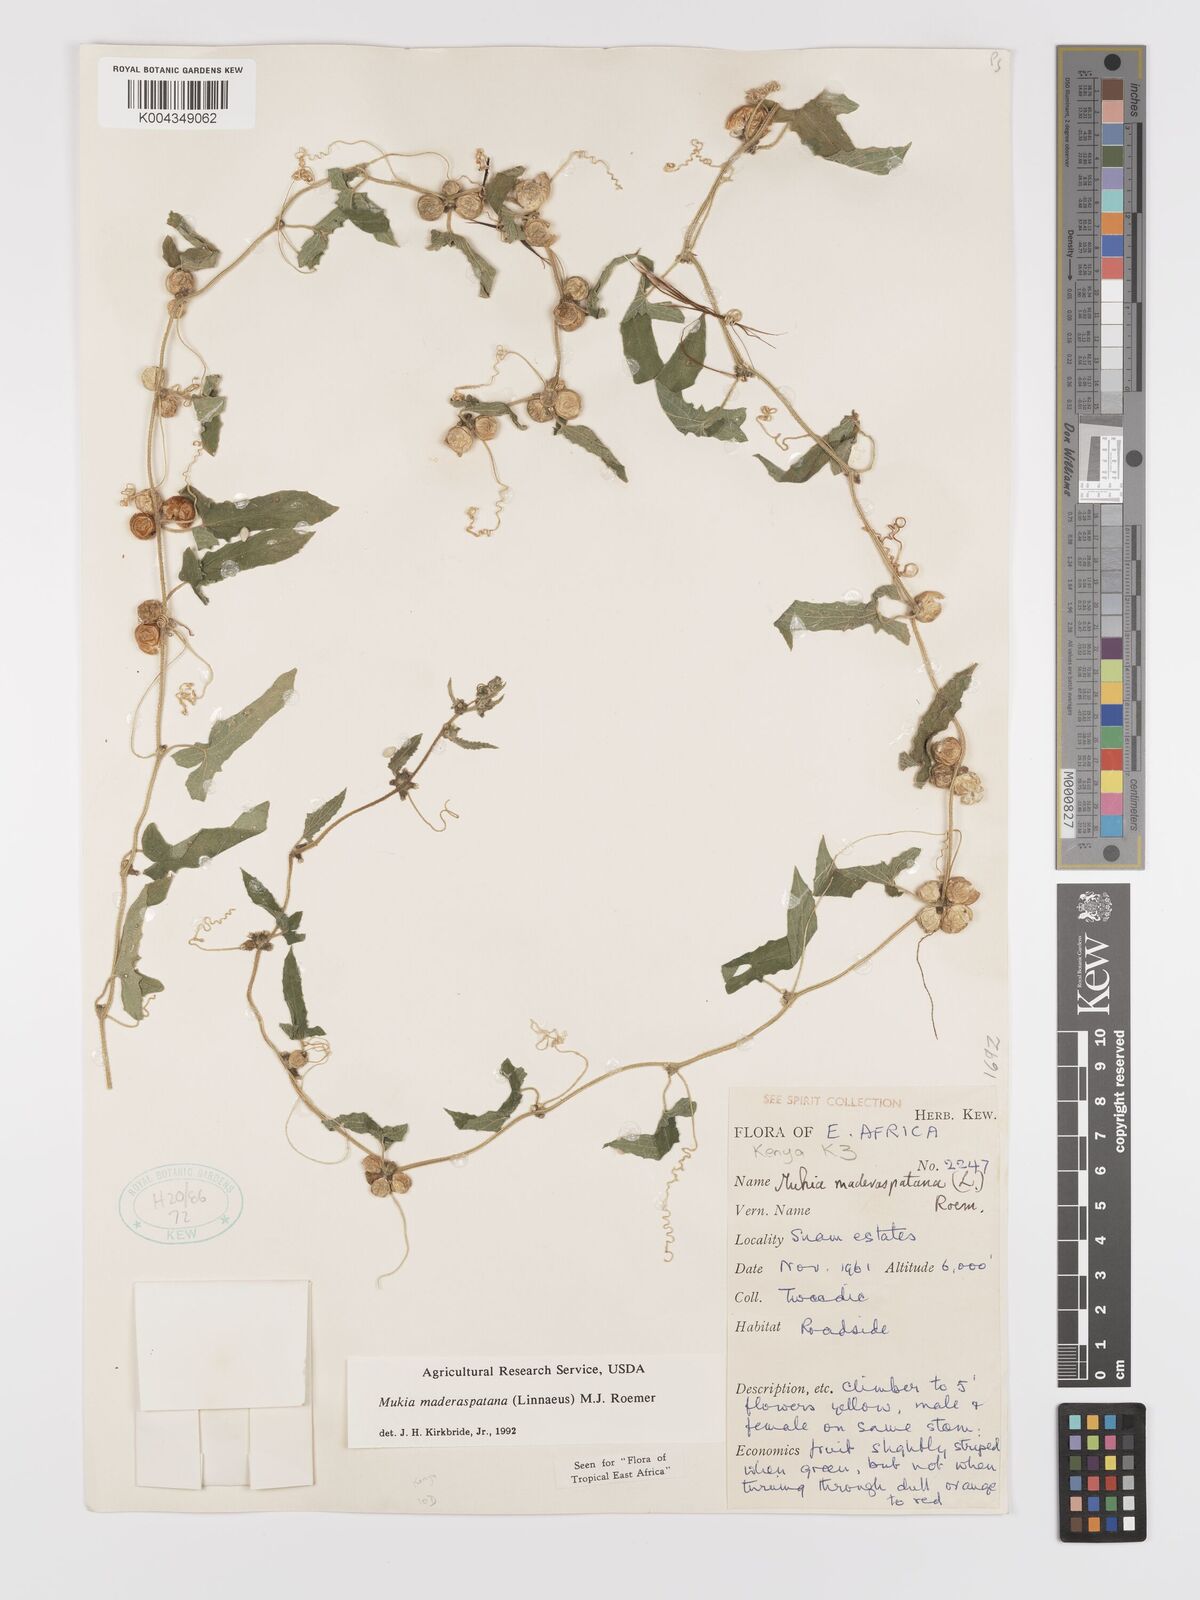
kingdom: Plantae
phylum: Tracheophyta
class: Magnoliopsida
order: Cucurbitales
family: Cucurbitaceae
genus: Cucumis
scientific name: Cucumis maderaspatanus
